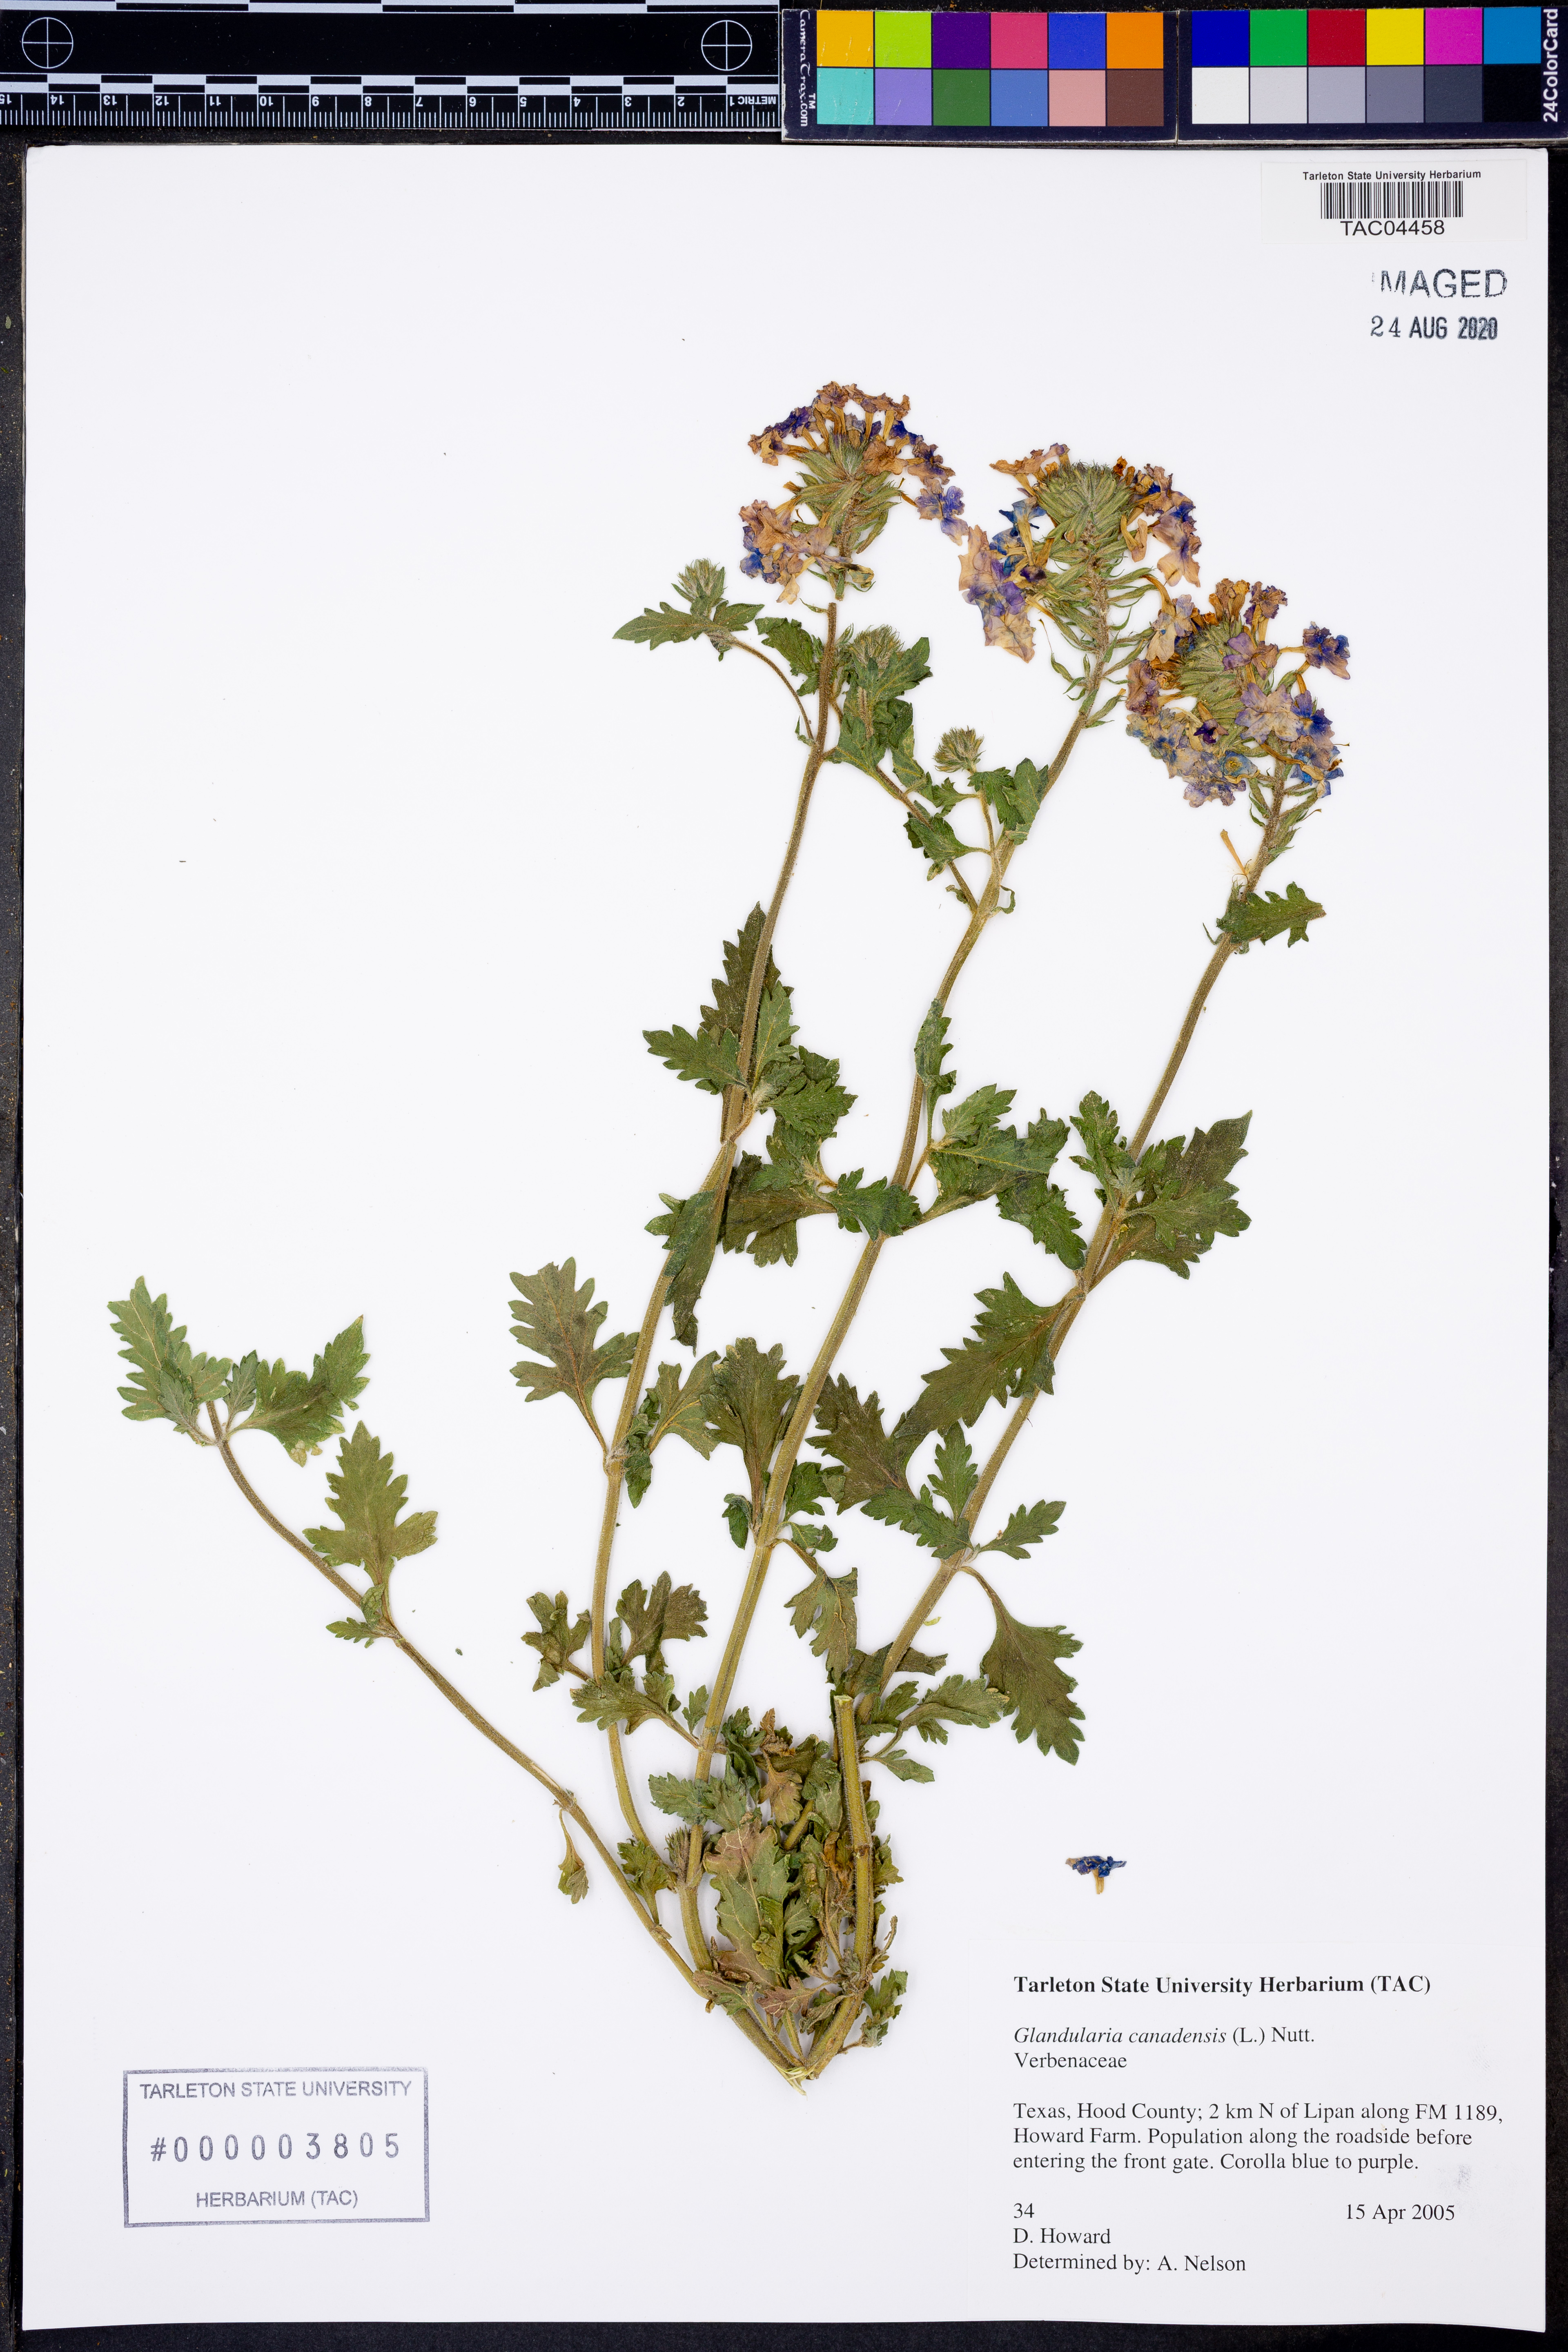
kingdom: Plantae
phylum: Tracheophyta
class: Magnoliopsida
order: Lamiales
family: Verbenaceae
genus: Verbena
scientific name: Verbena canadensis
